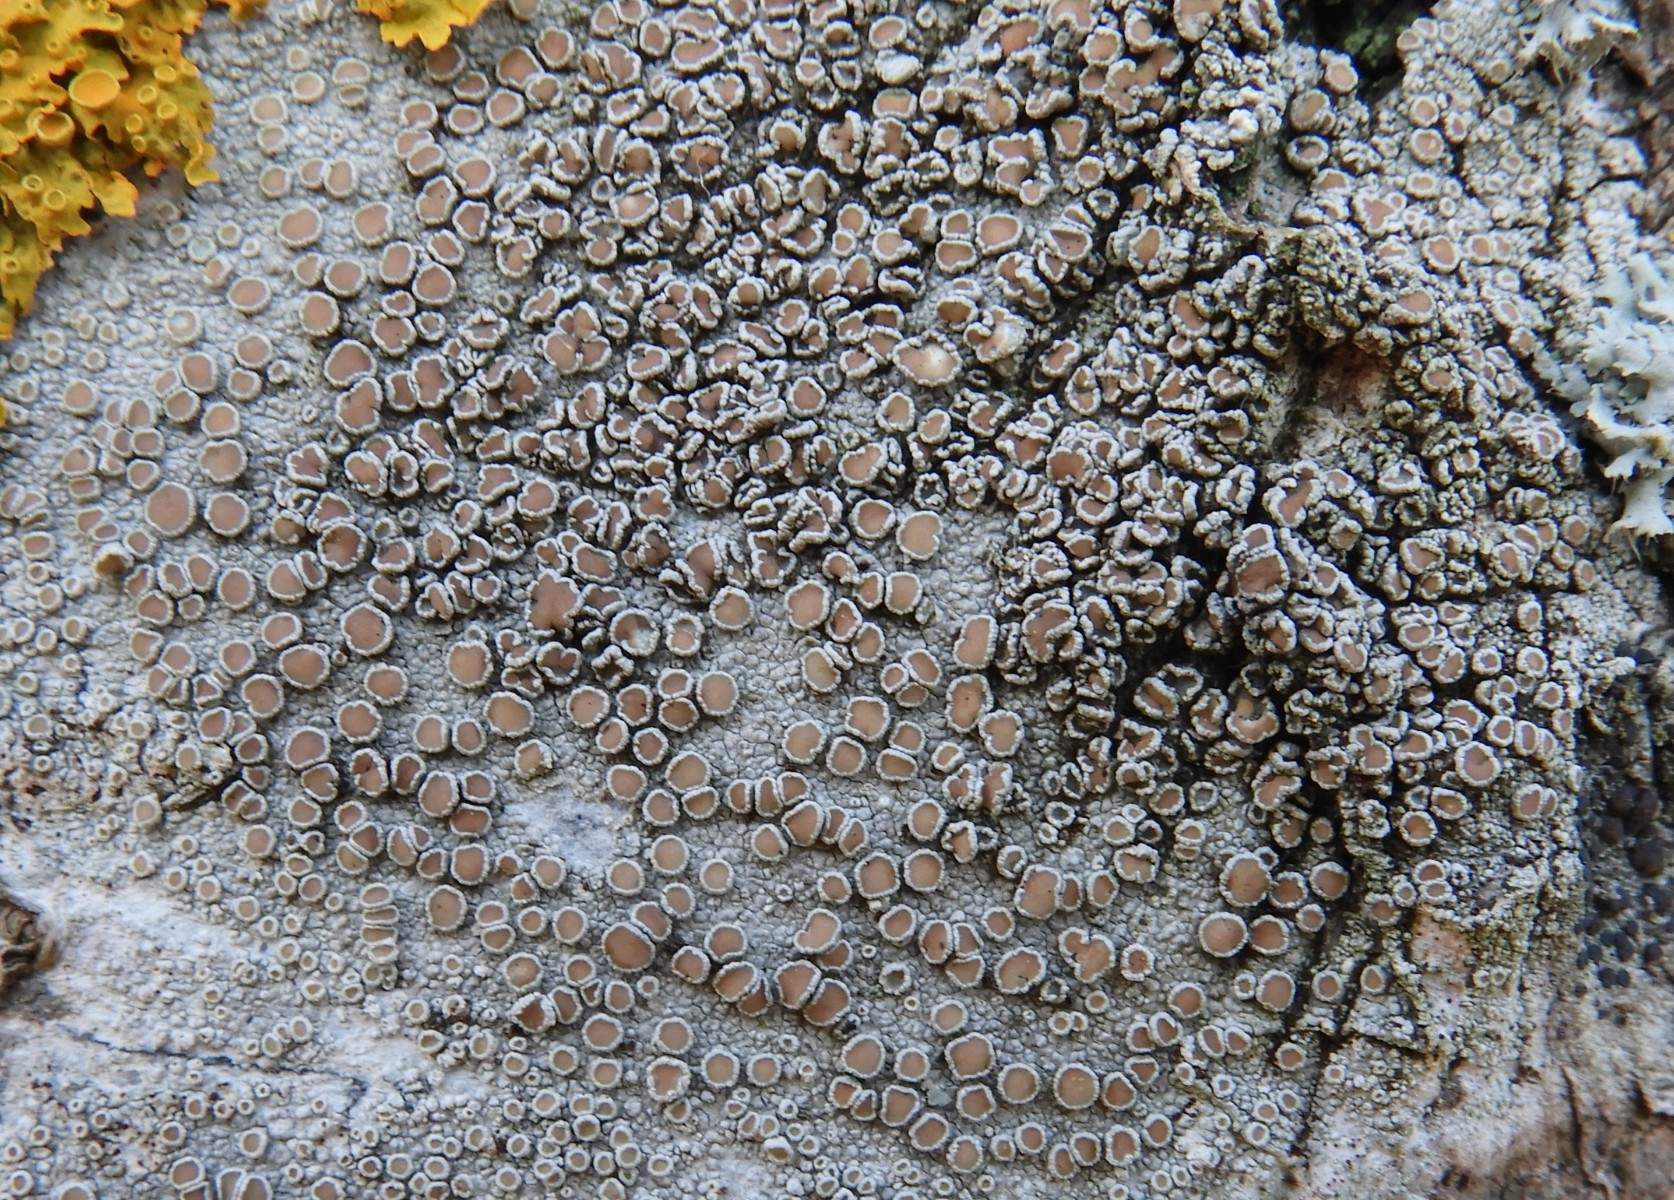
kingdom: Fungi
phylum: Ascomycota
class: Lecanoromycetes
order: Lecanorales
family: Lecanoraceae
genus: Lecanora
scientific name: Lecanora chlarotera
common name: brun kantskivelav
